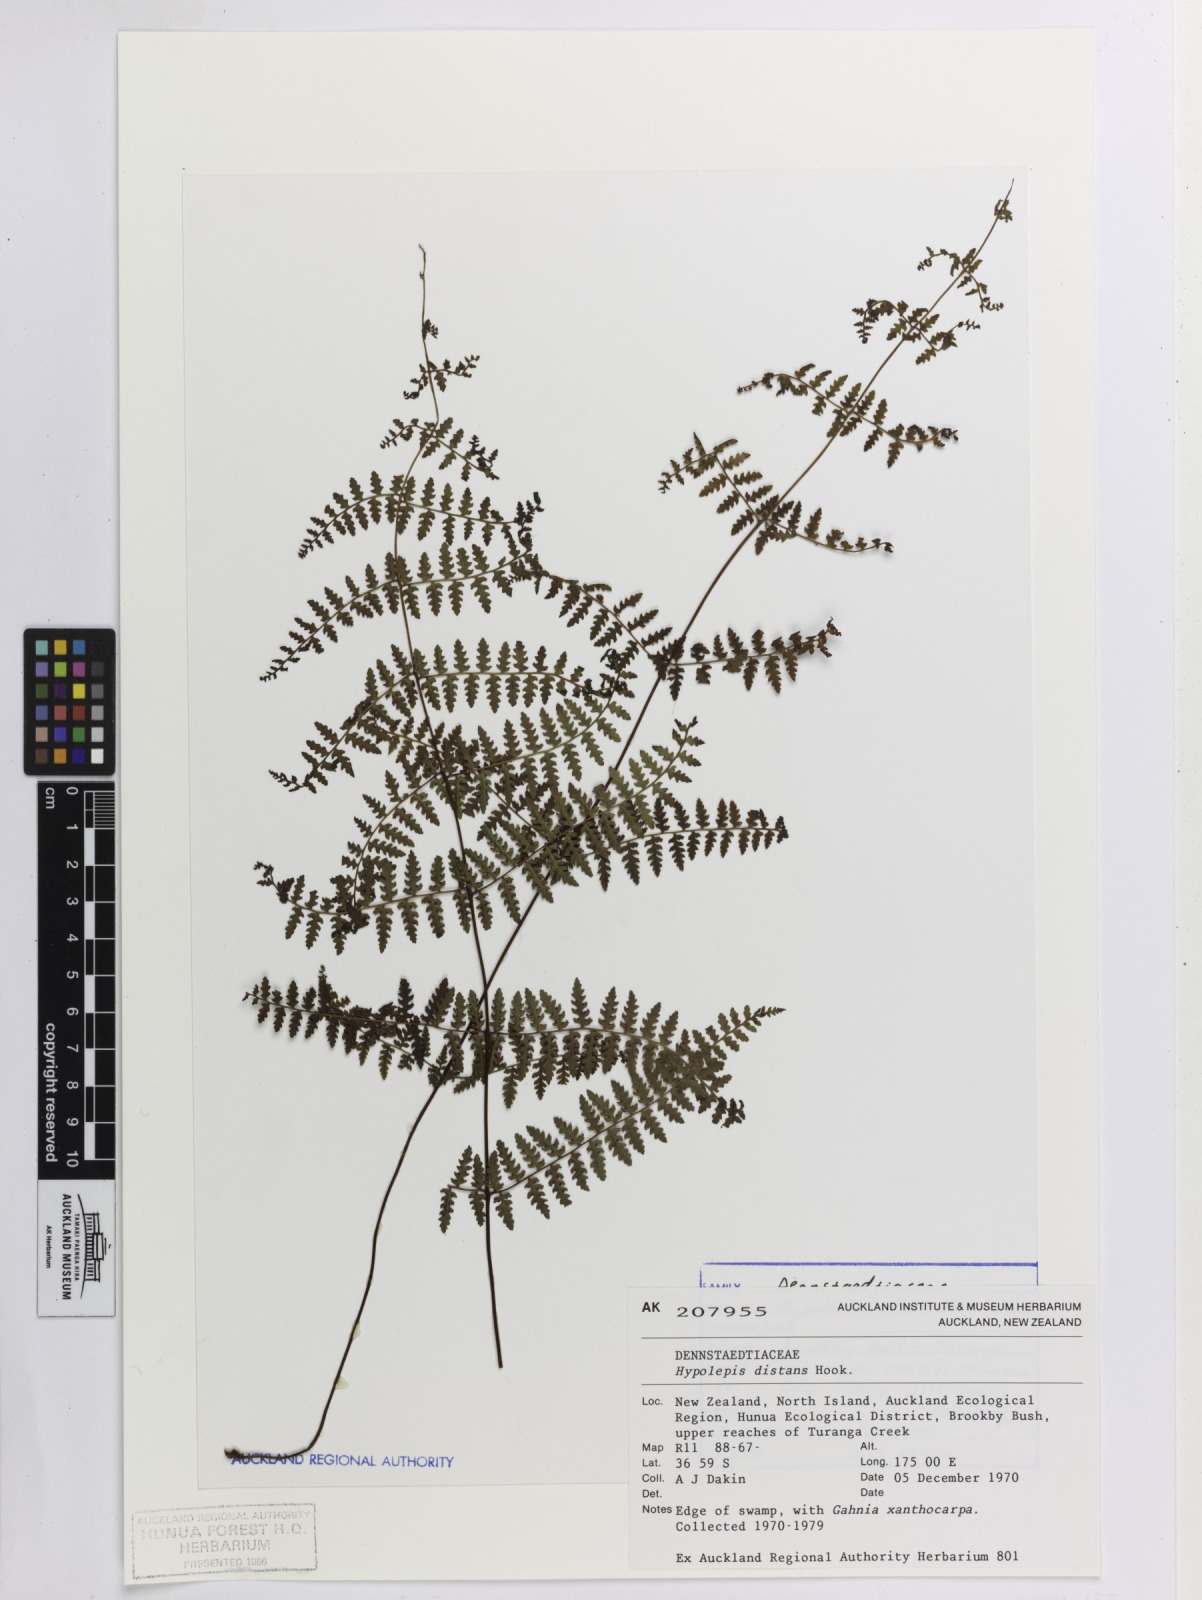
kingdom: Plantae
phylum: Tracheophyta
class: Polypodiopsida
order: Polypodiales
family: Dennstaedtiaceae
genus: Hiya
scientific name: Hiya distans
